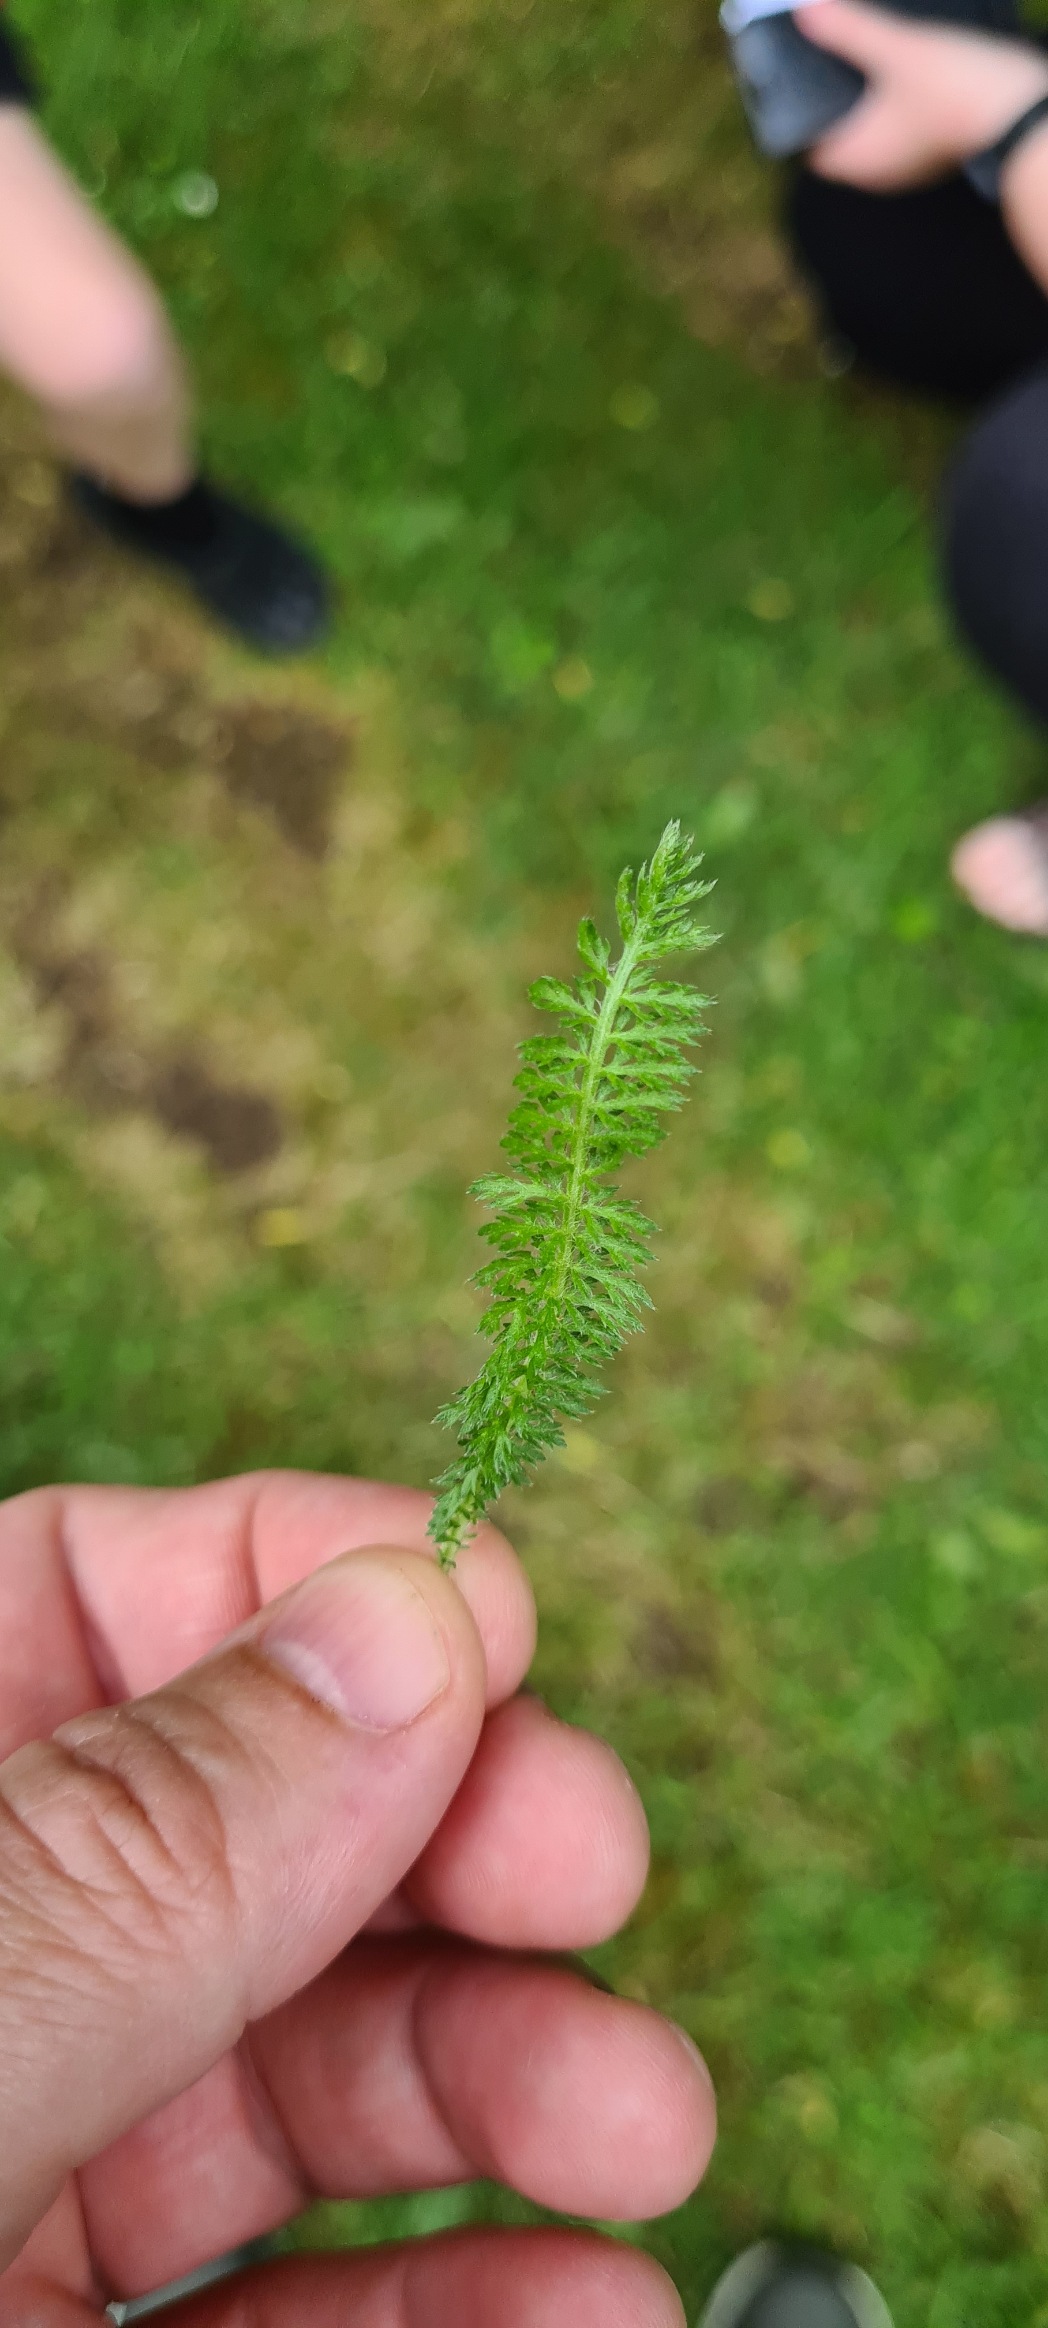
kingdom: Plantae
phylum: Tracheophyta
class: Magnoliopsida
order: Asterales
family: Asteraceae
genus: Achillea
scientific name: Achillea millefolium
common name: Almindelig røllike
